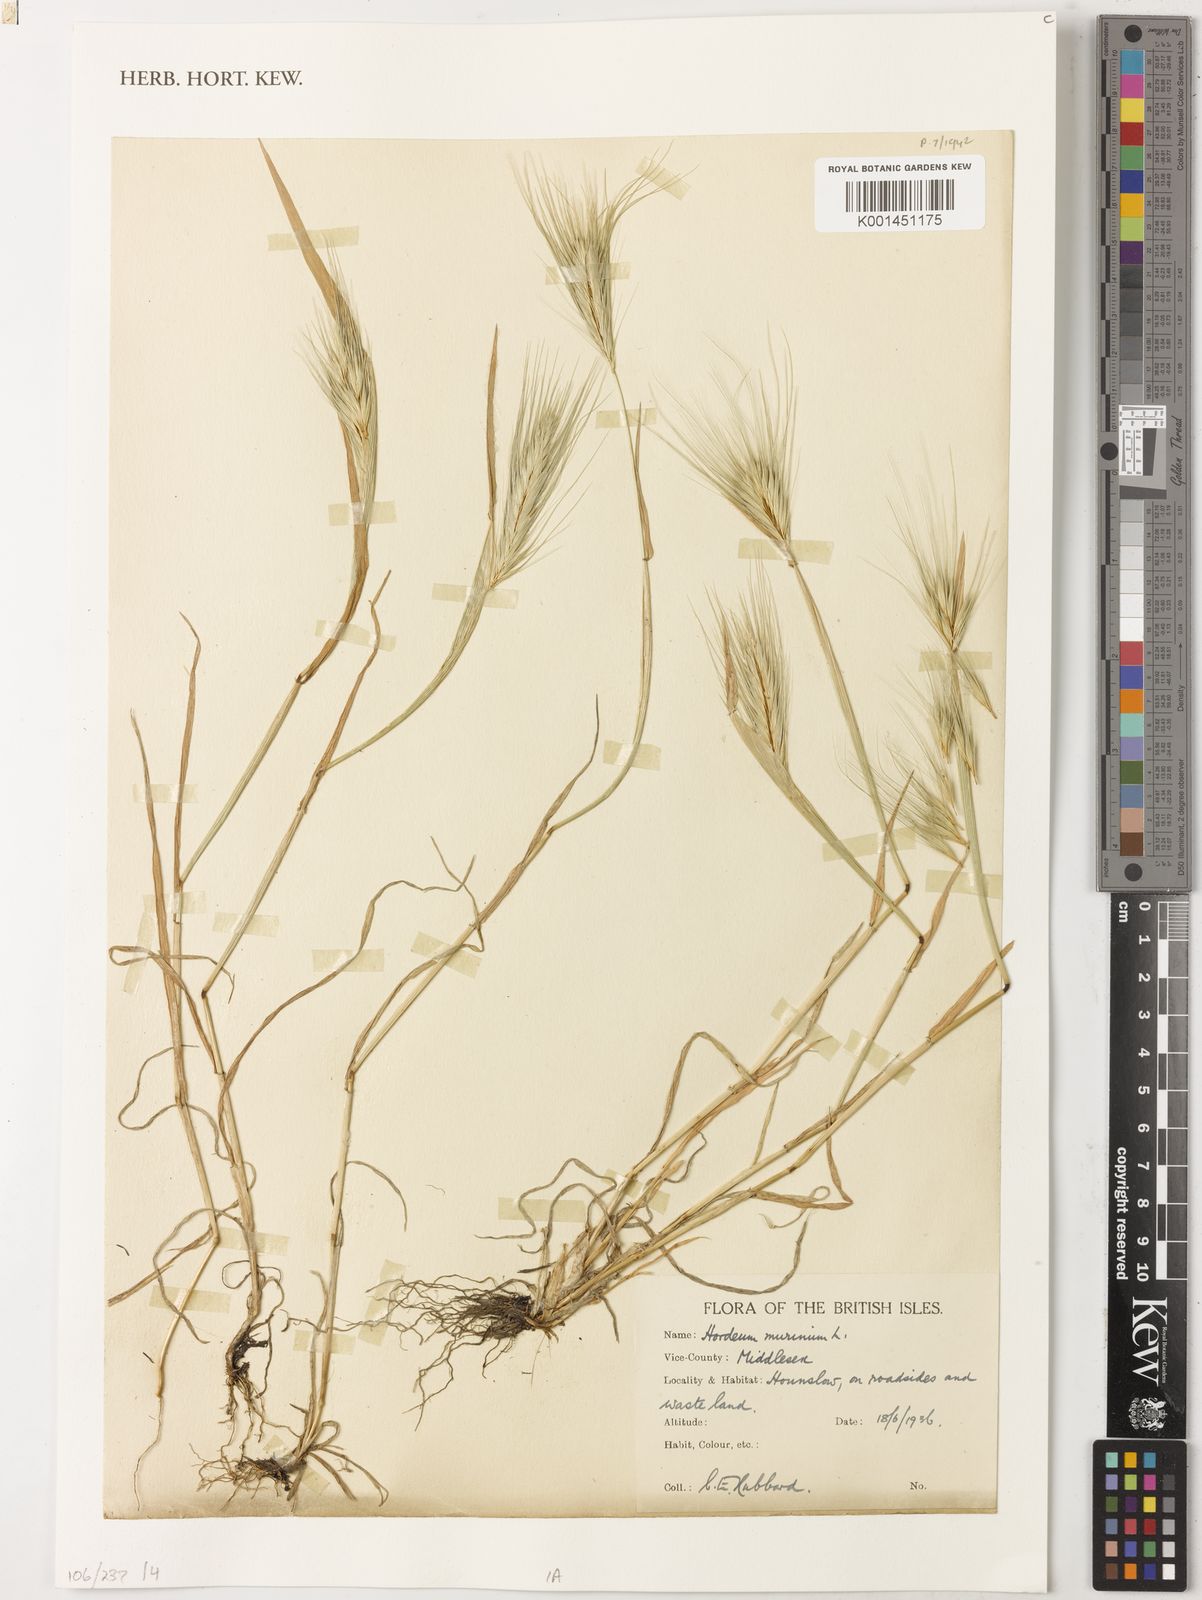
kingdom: Plantae
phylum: Tracheophyta
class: Liliopsida
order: Poales
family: Poaceae
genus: Hordeum
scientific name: Hordeum murinum
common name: Wall barley
